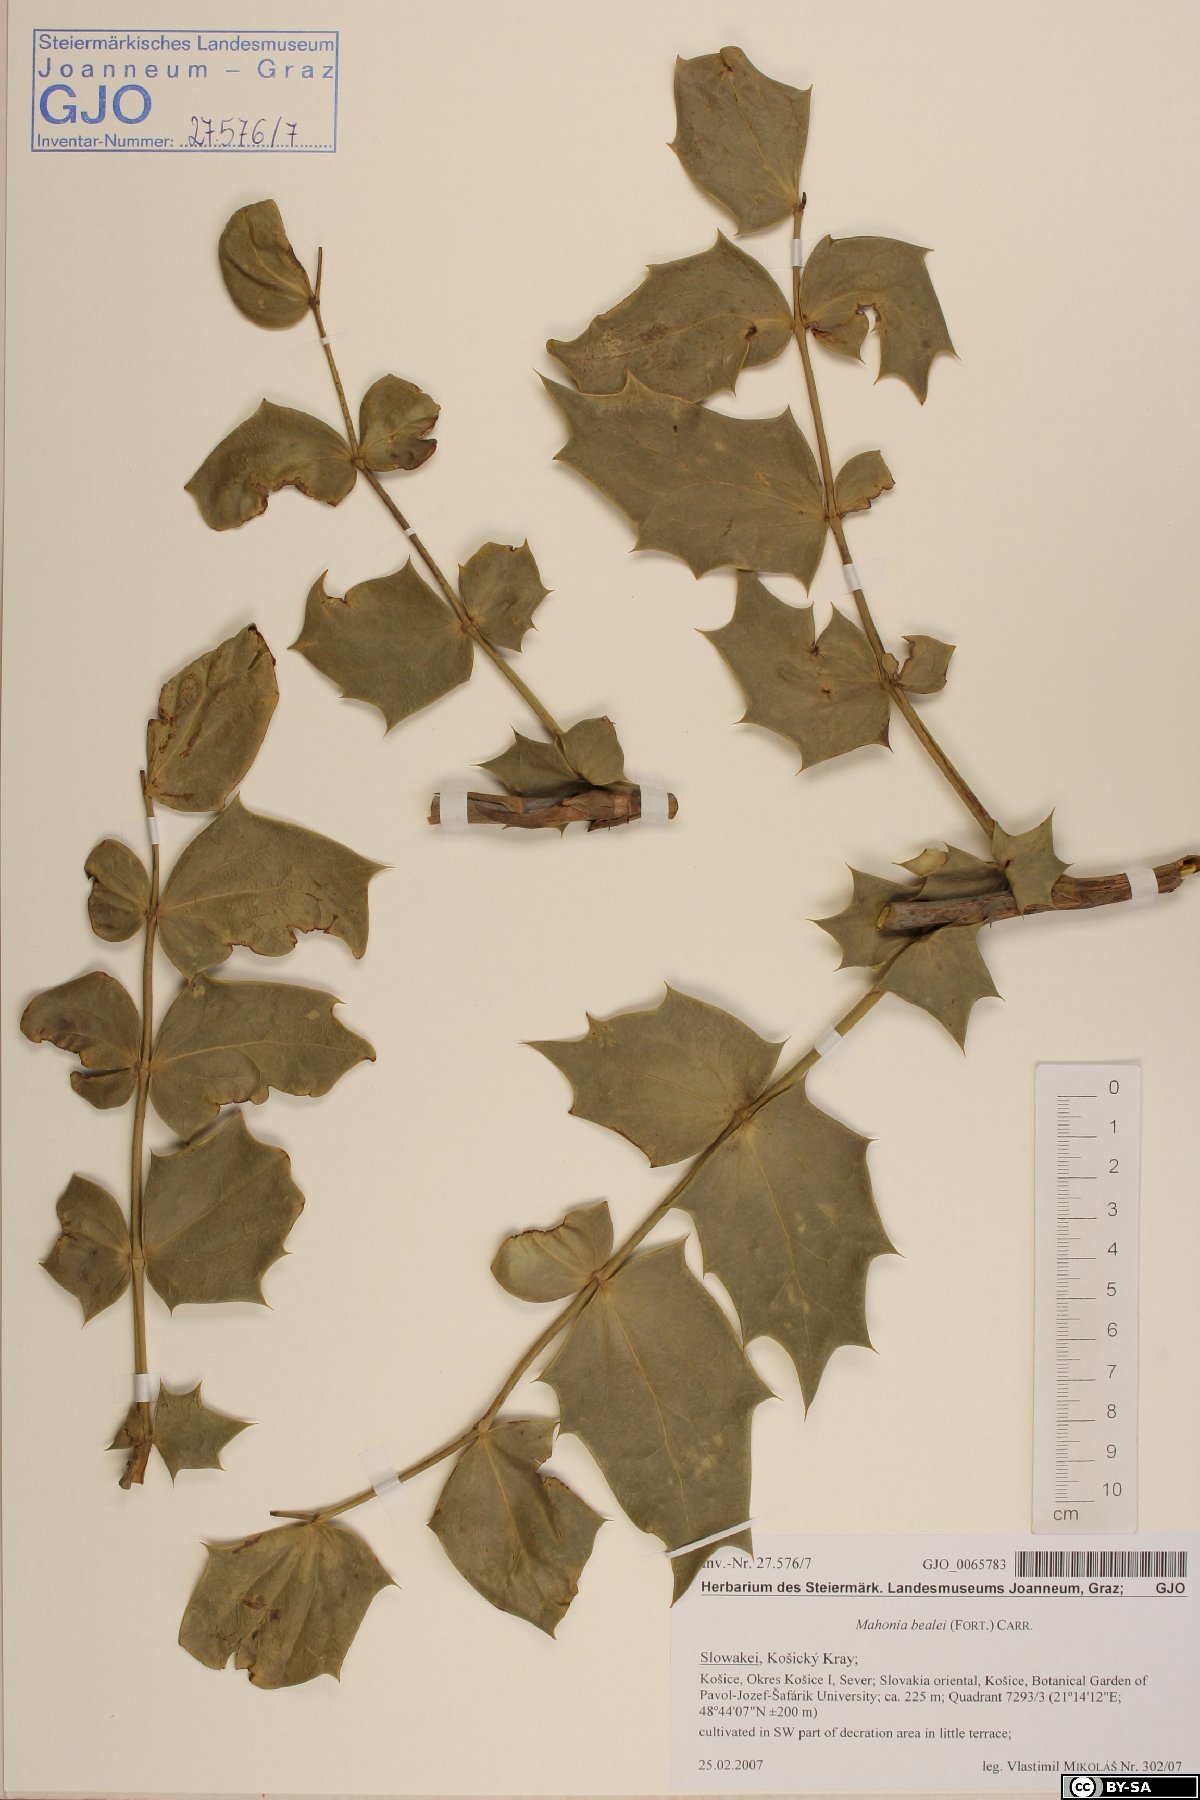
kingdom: Plantae
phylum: Tracheophyta
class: Magnoliopsida
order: Ranunculales
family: Berberidaceae
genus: Mahonia
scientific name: Mahonia bealei
